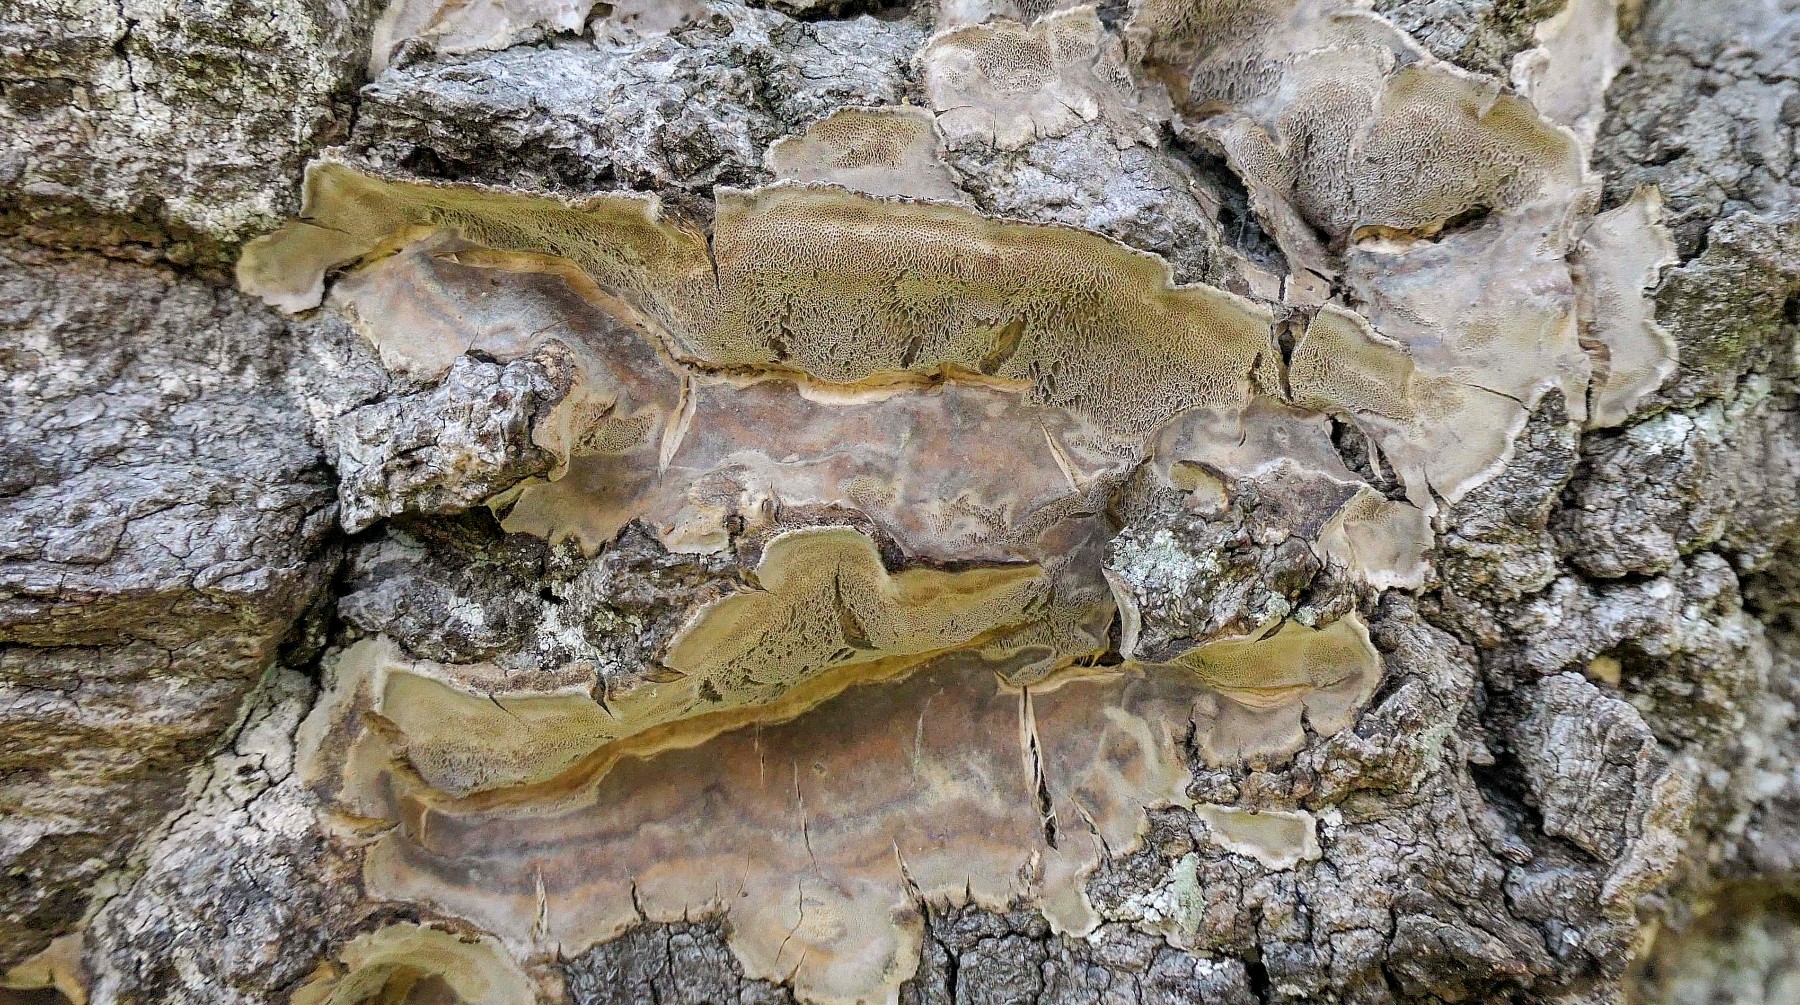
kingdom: Fungi
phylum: Basidiomycota
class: Agaricomycetes
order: Polyporales
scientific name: Polyporales
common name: poresvampordenen
